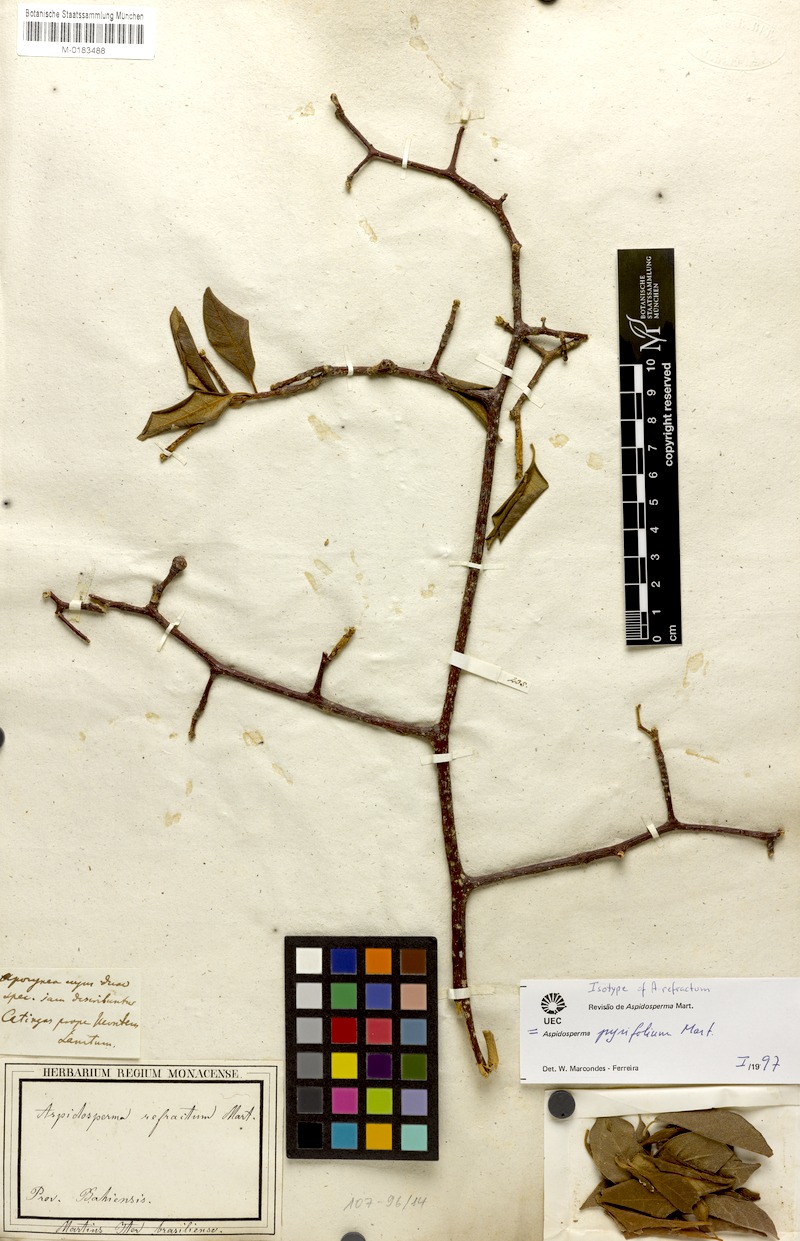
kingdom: Plantae
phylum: Tracheophyta
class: Magnoliopsida
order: Gentianales
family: Apocynaceae
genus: Aspidosperma
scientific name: Aspidosperma pyrifolium
